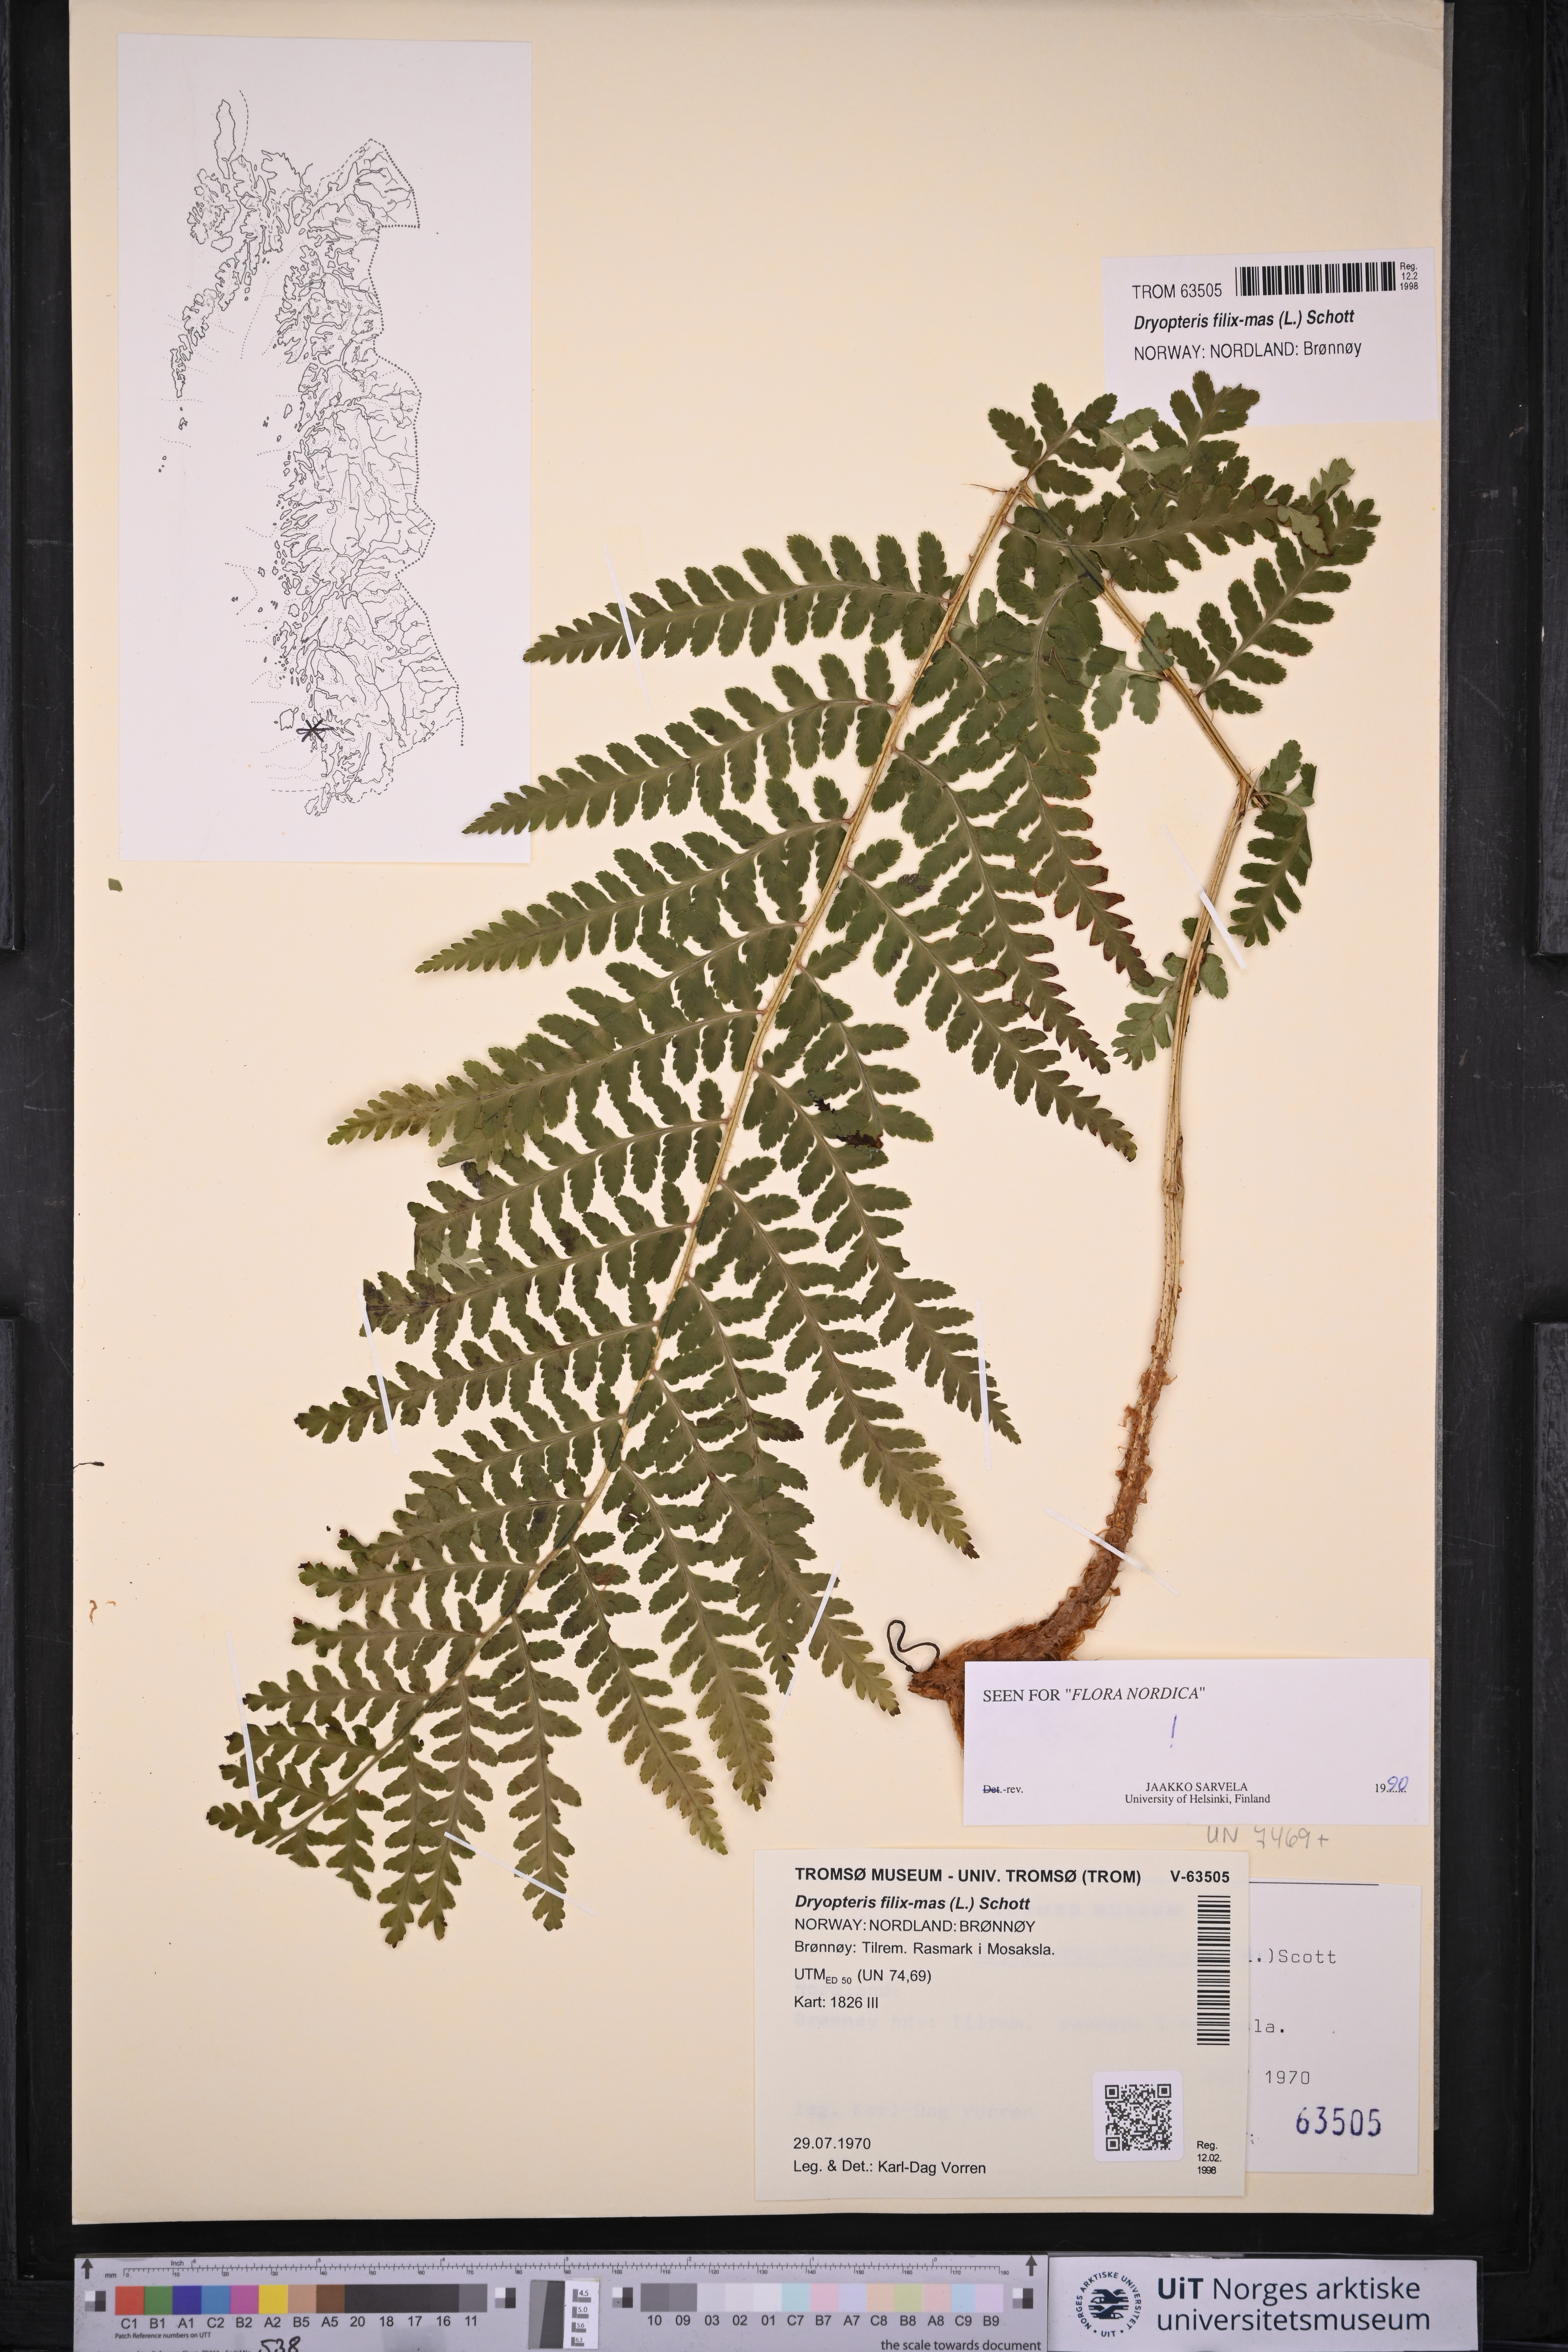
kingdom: Plantae
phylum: Tracheophyta
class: Polypodiopsida
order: Polypodiales
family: Dryopteridaceae
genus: Dryopteris
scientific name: Dryopteris filix-mas
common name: Male fern
